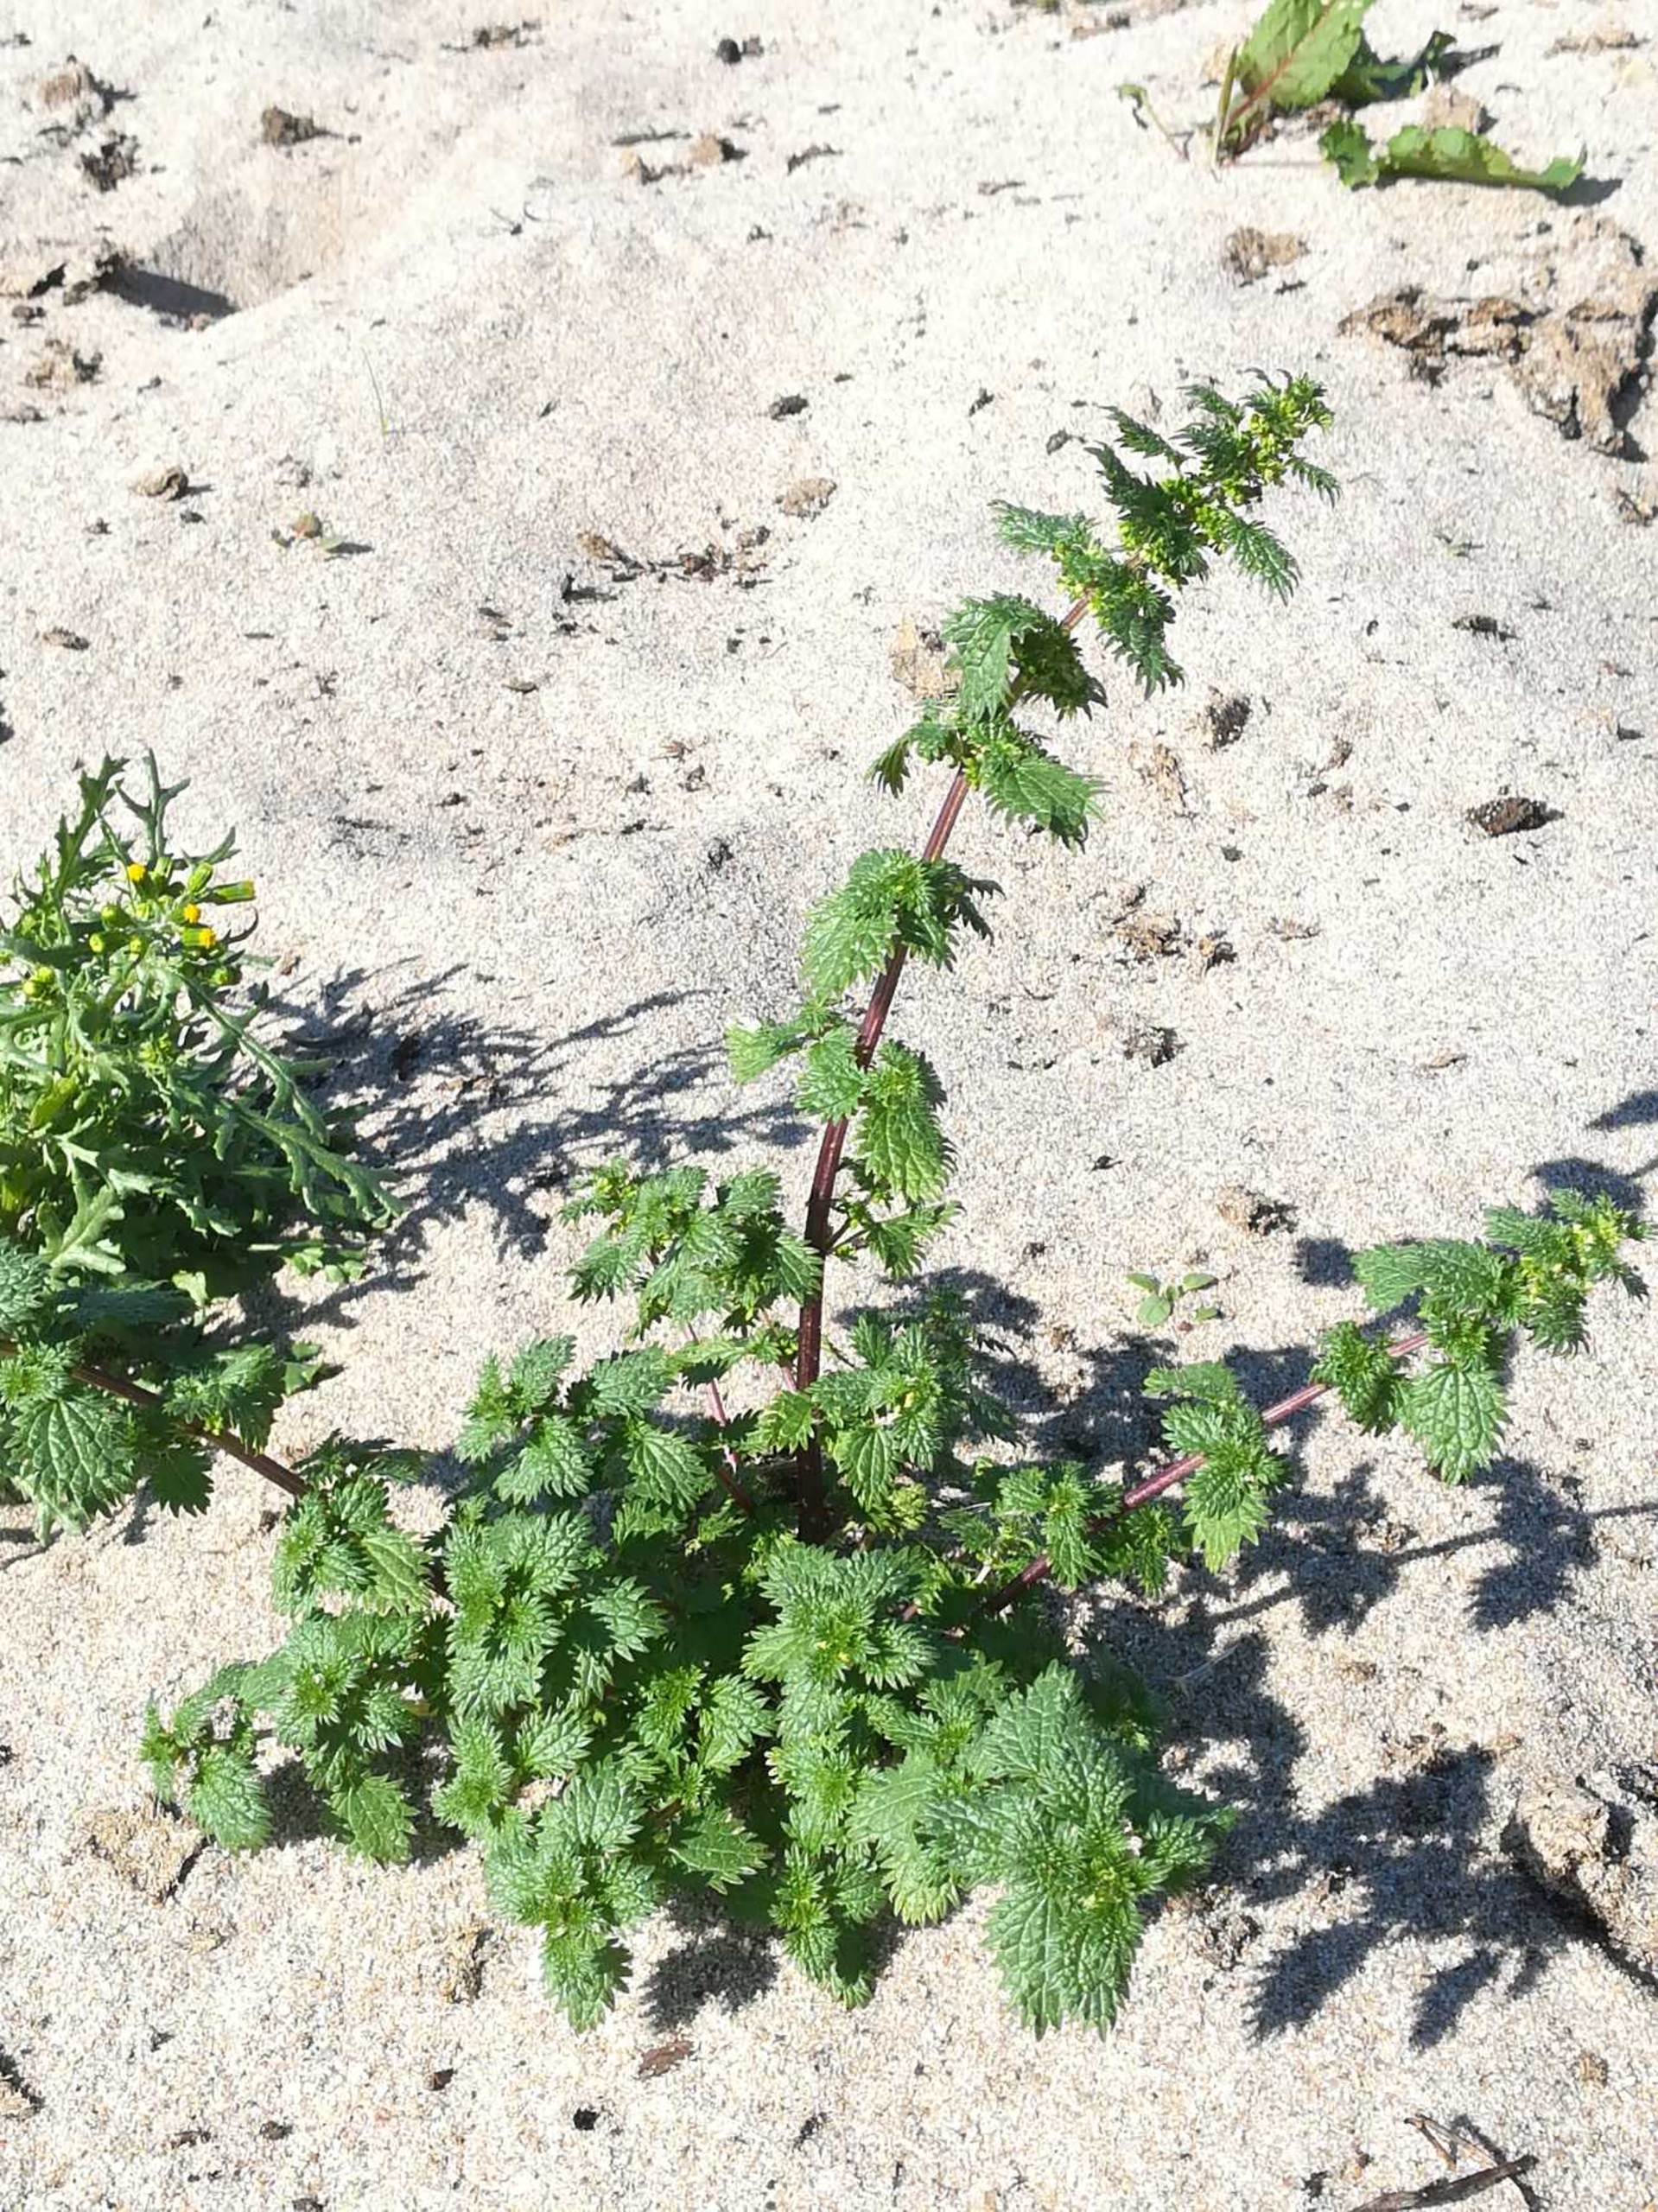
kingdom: Plantae
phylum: Tracheophyta
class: Magnoliopsida
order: Rosales
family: Urticaceae
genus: Urtica
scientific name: Urtica urens
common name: Liden nælde
